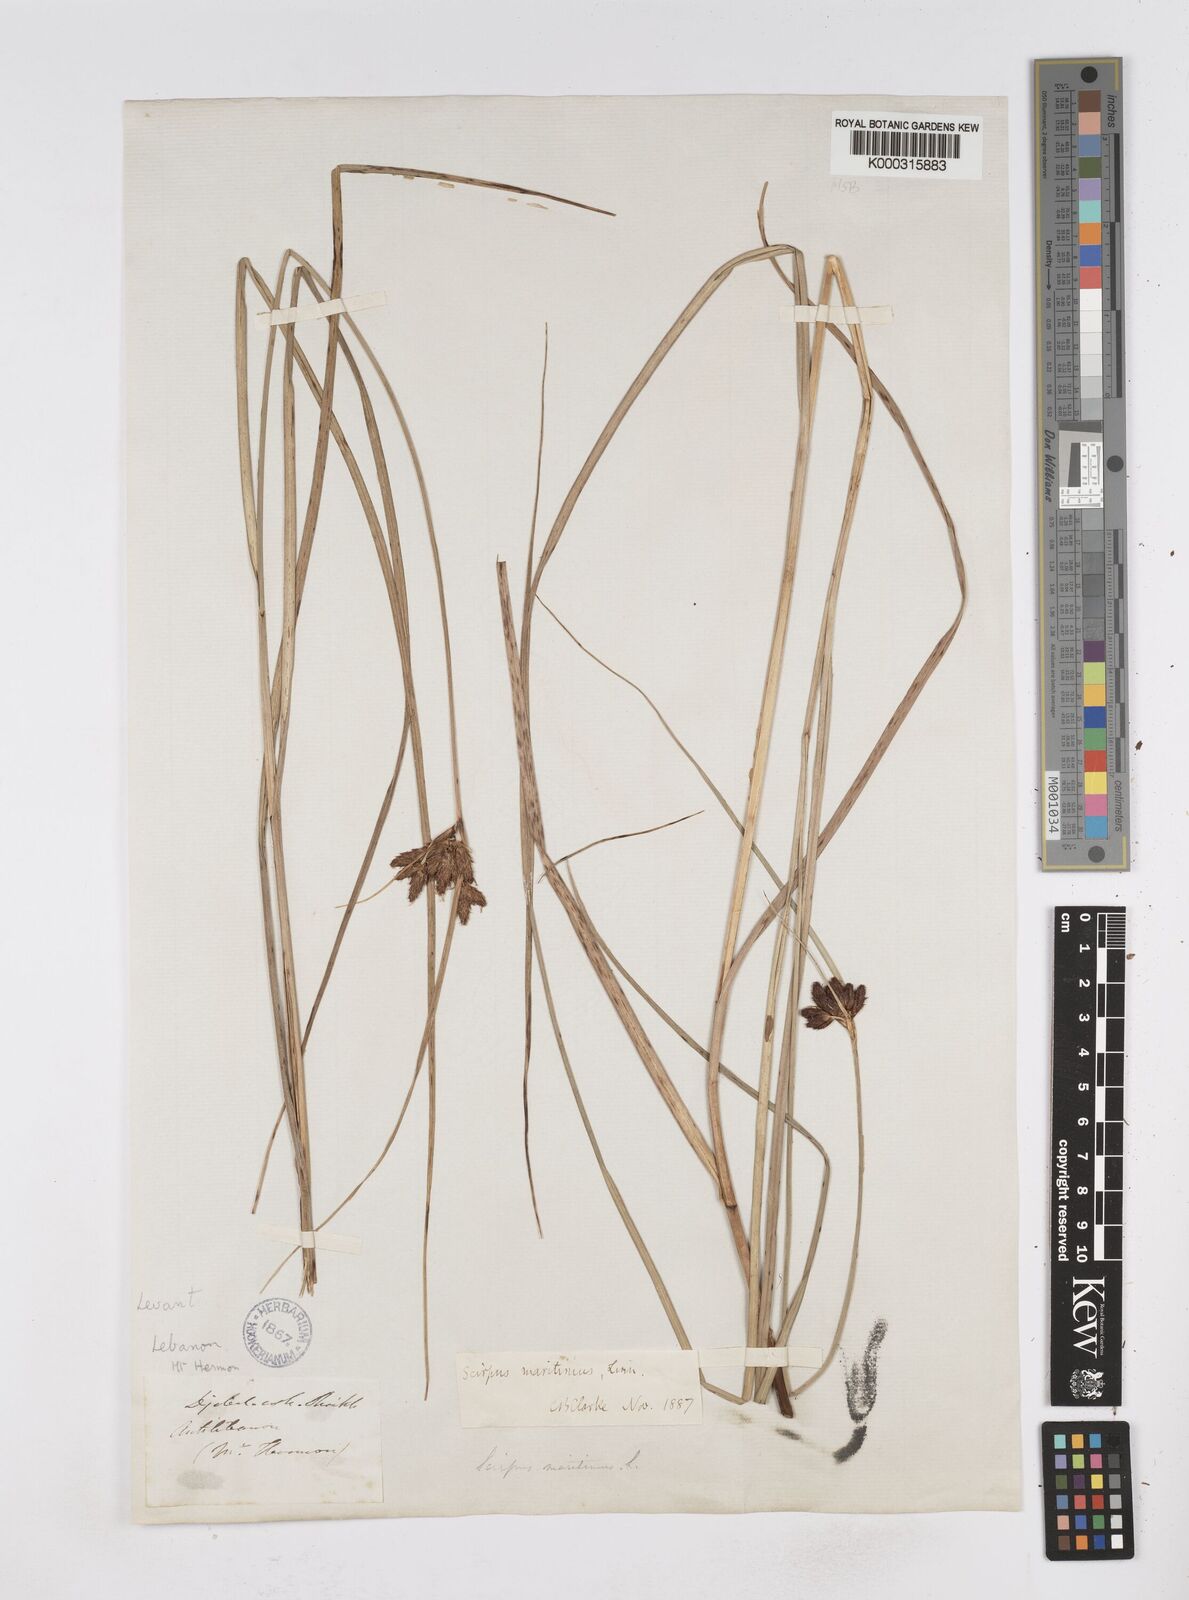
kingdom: Plantae
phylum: Tracheophyta
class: Liliopsida
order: Poales
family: Cyperaceae
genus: Bolboschoenus
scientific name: Bolboschoenus maritimus
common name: Sea club-rush
